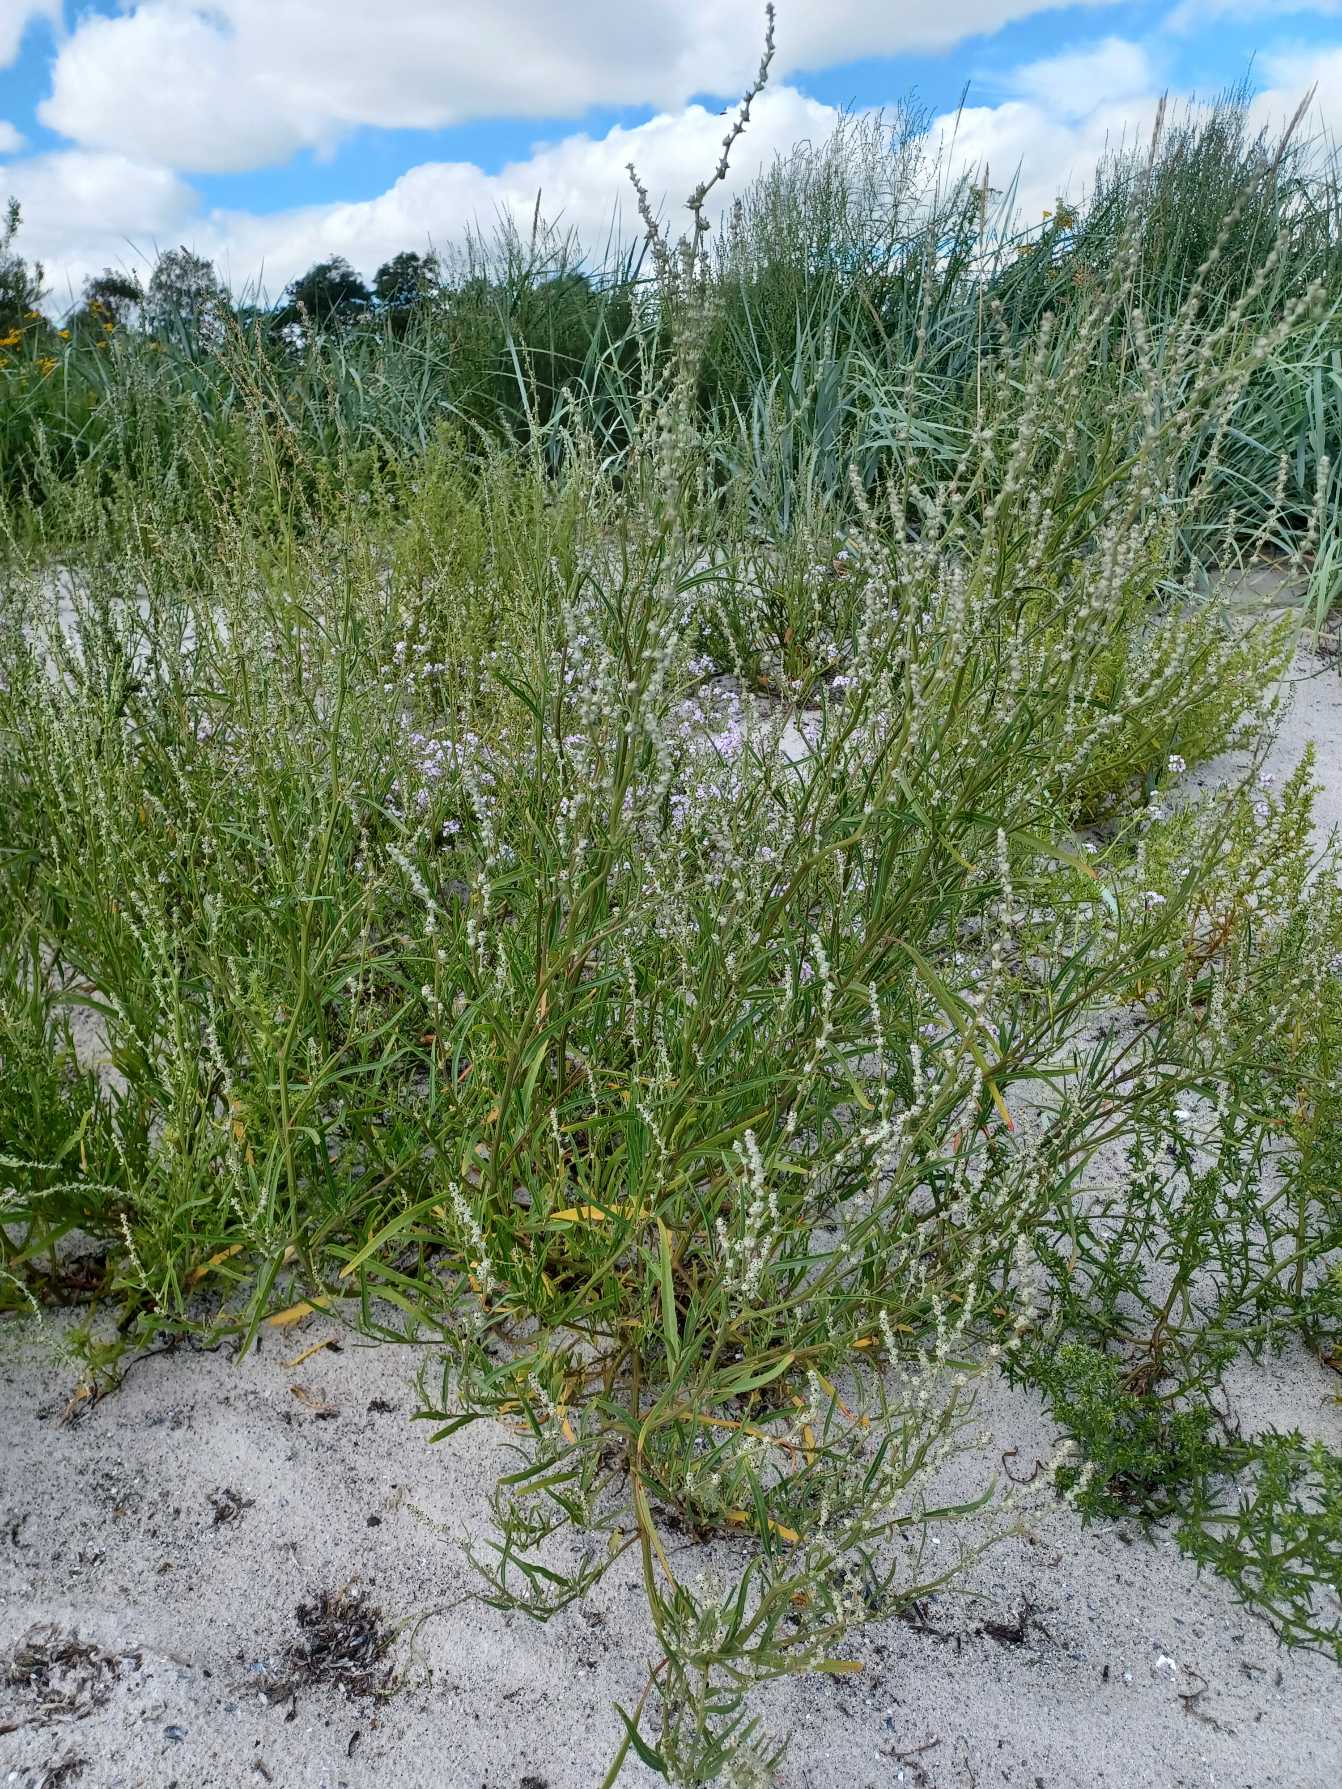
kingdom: Plantae
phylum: Tracheophyta
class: Magnoliopsida
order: Caryophyllales
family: Amaranthaceae
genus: Atriplex
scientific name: Atriplex littoralis
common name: Strand-mælde
